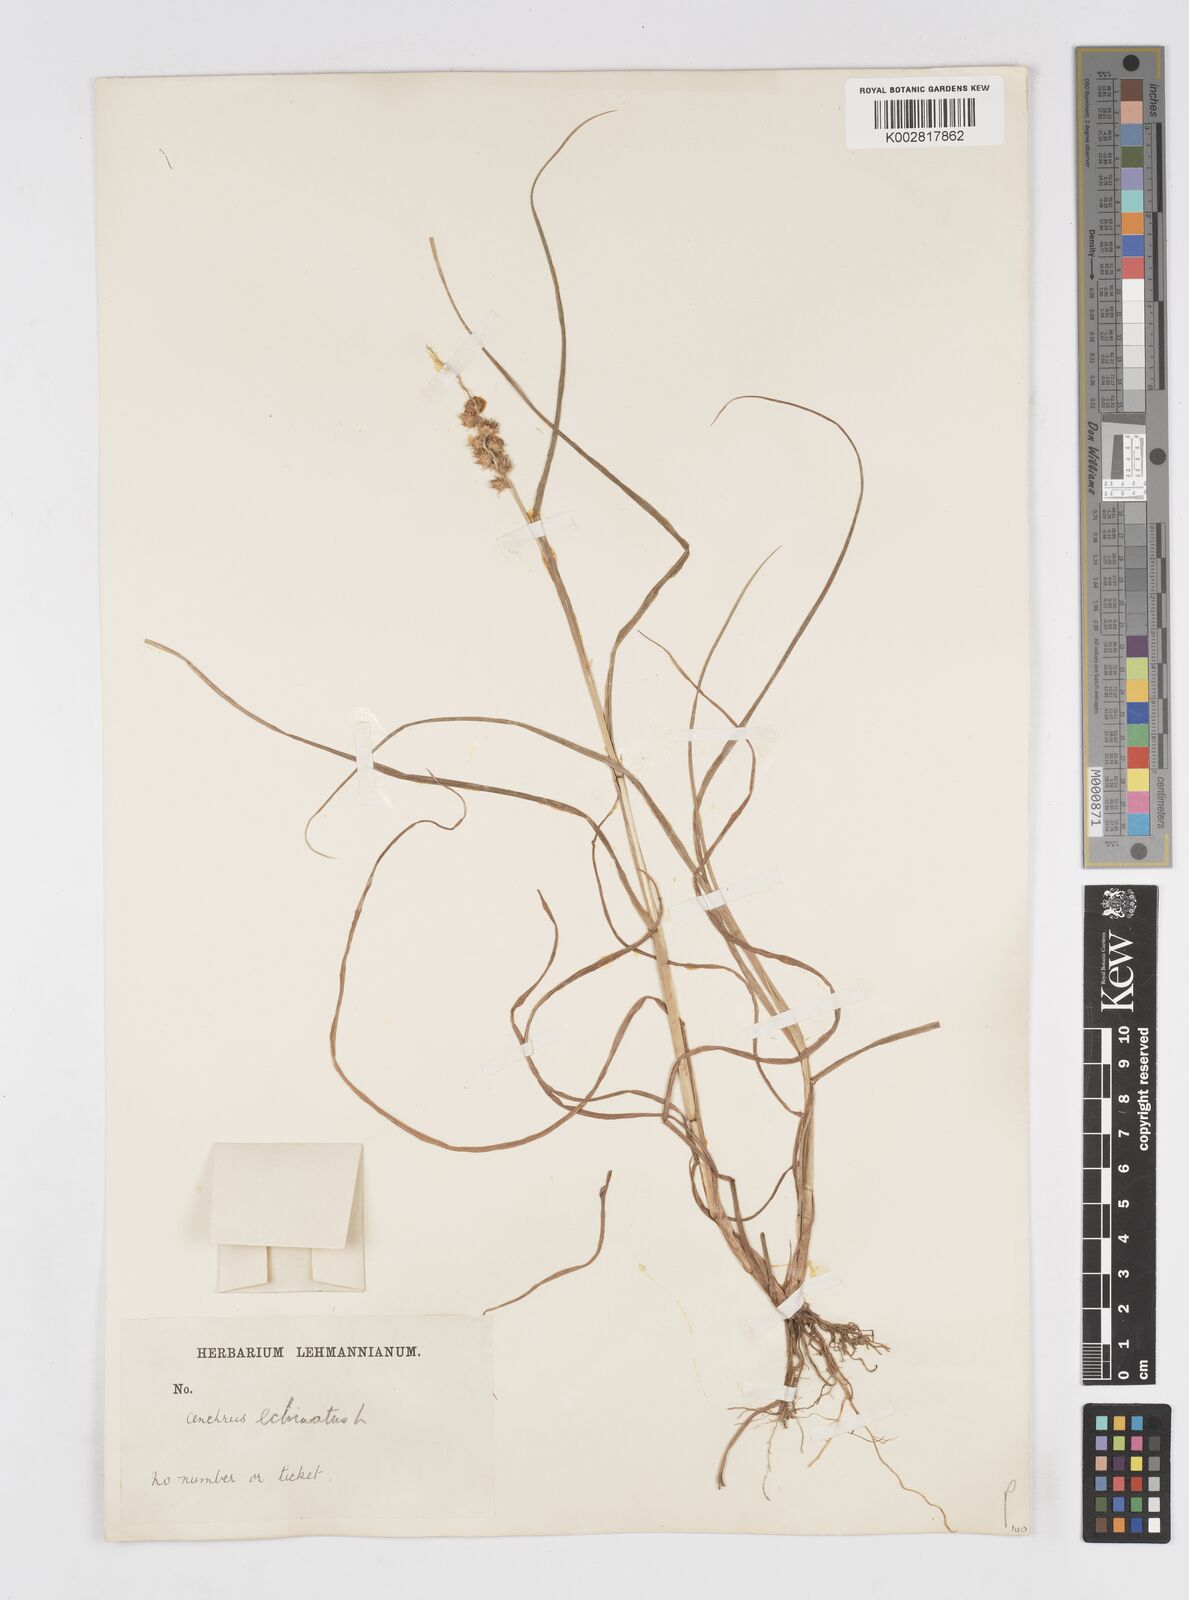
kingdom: Plantae
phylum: Tracheophyta
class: Liliopsida
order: Poales
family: Poaceae
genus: Cenchrus
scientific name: Cenchrus
